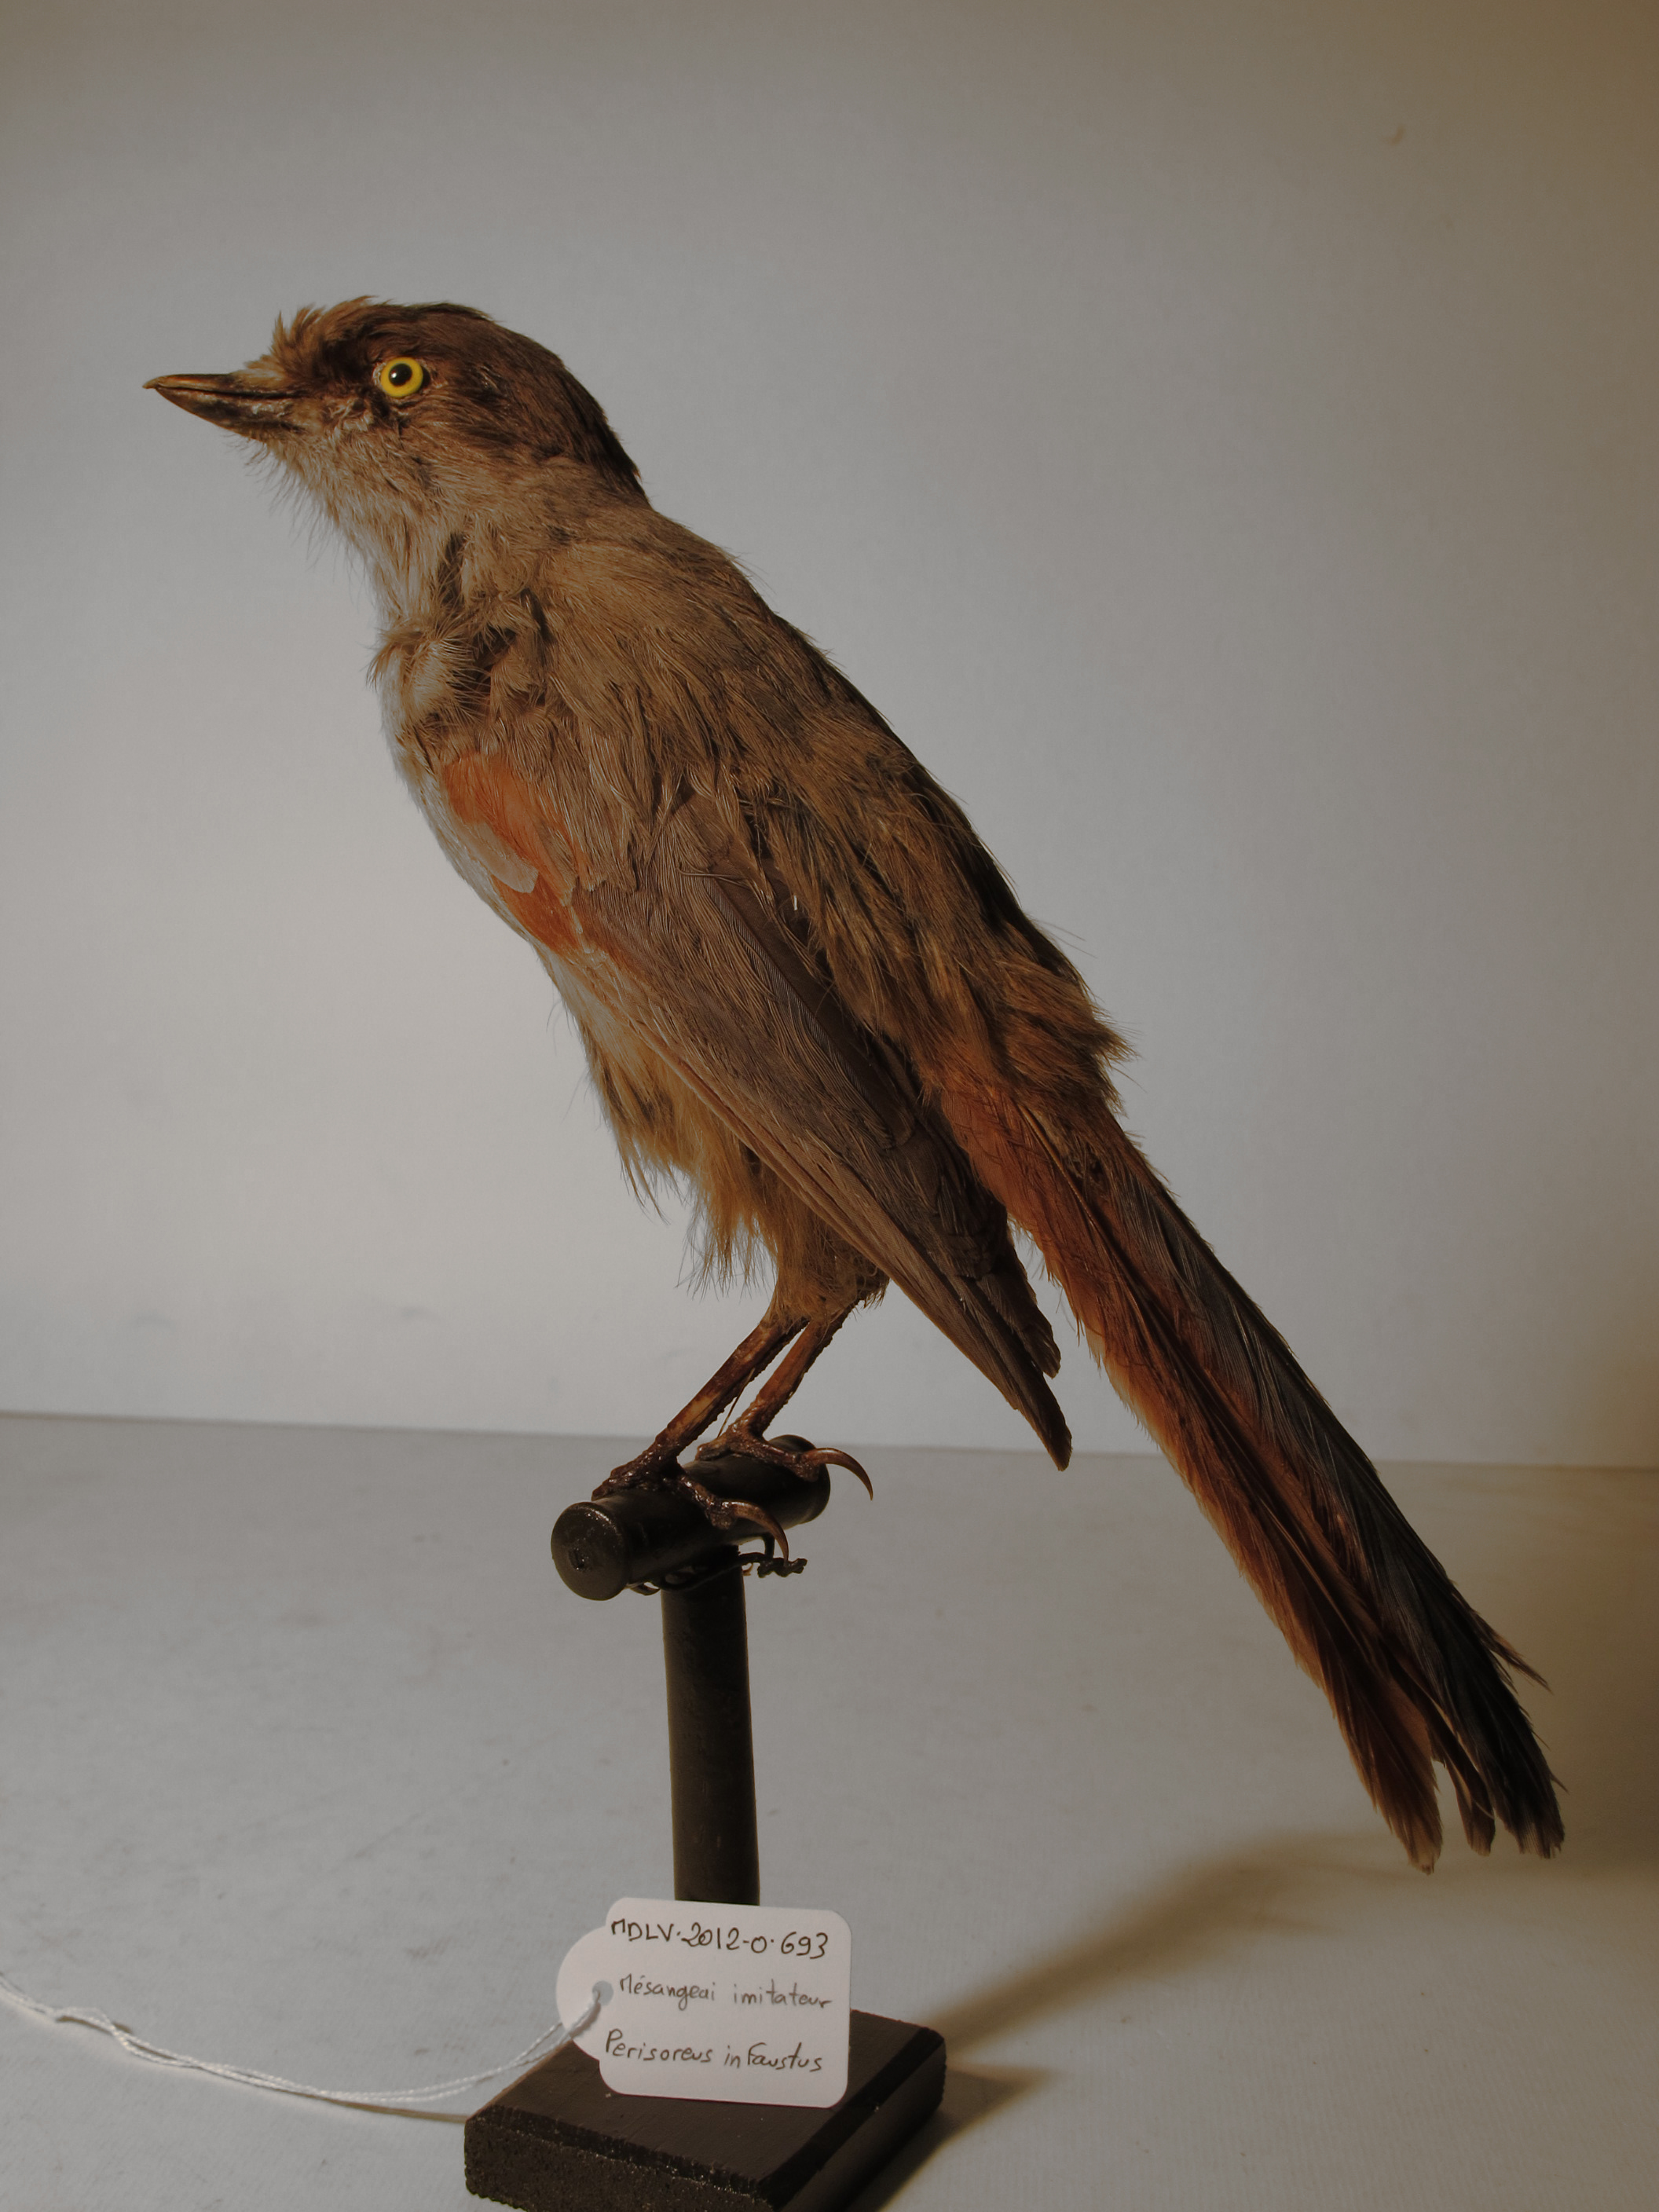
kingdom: Animalia
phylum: Chordata
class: Aves
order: Passeriformes
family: Corvidae
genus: Perisoreus
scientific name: Perisoreus infaustus
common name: Siberian Jay
